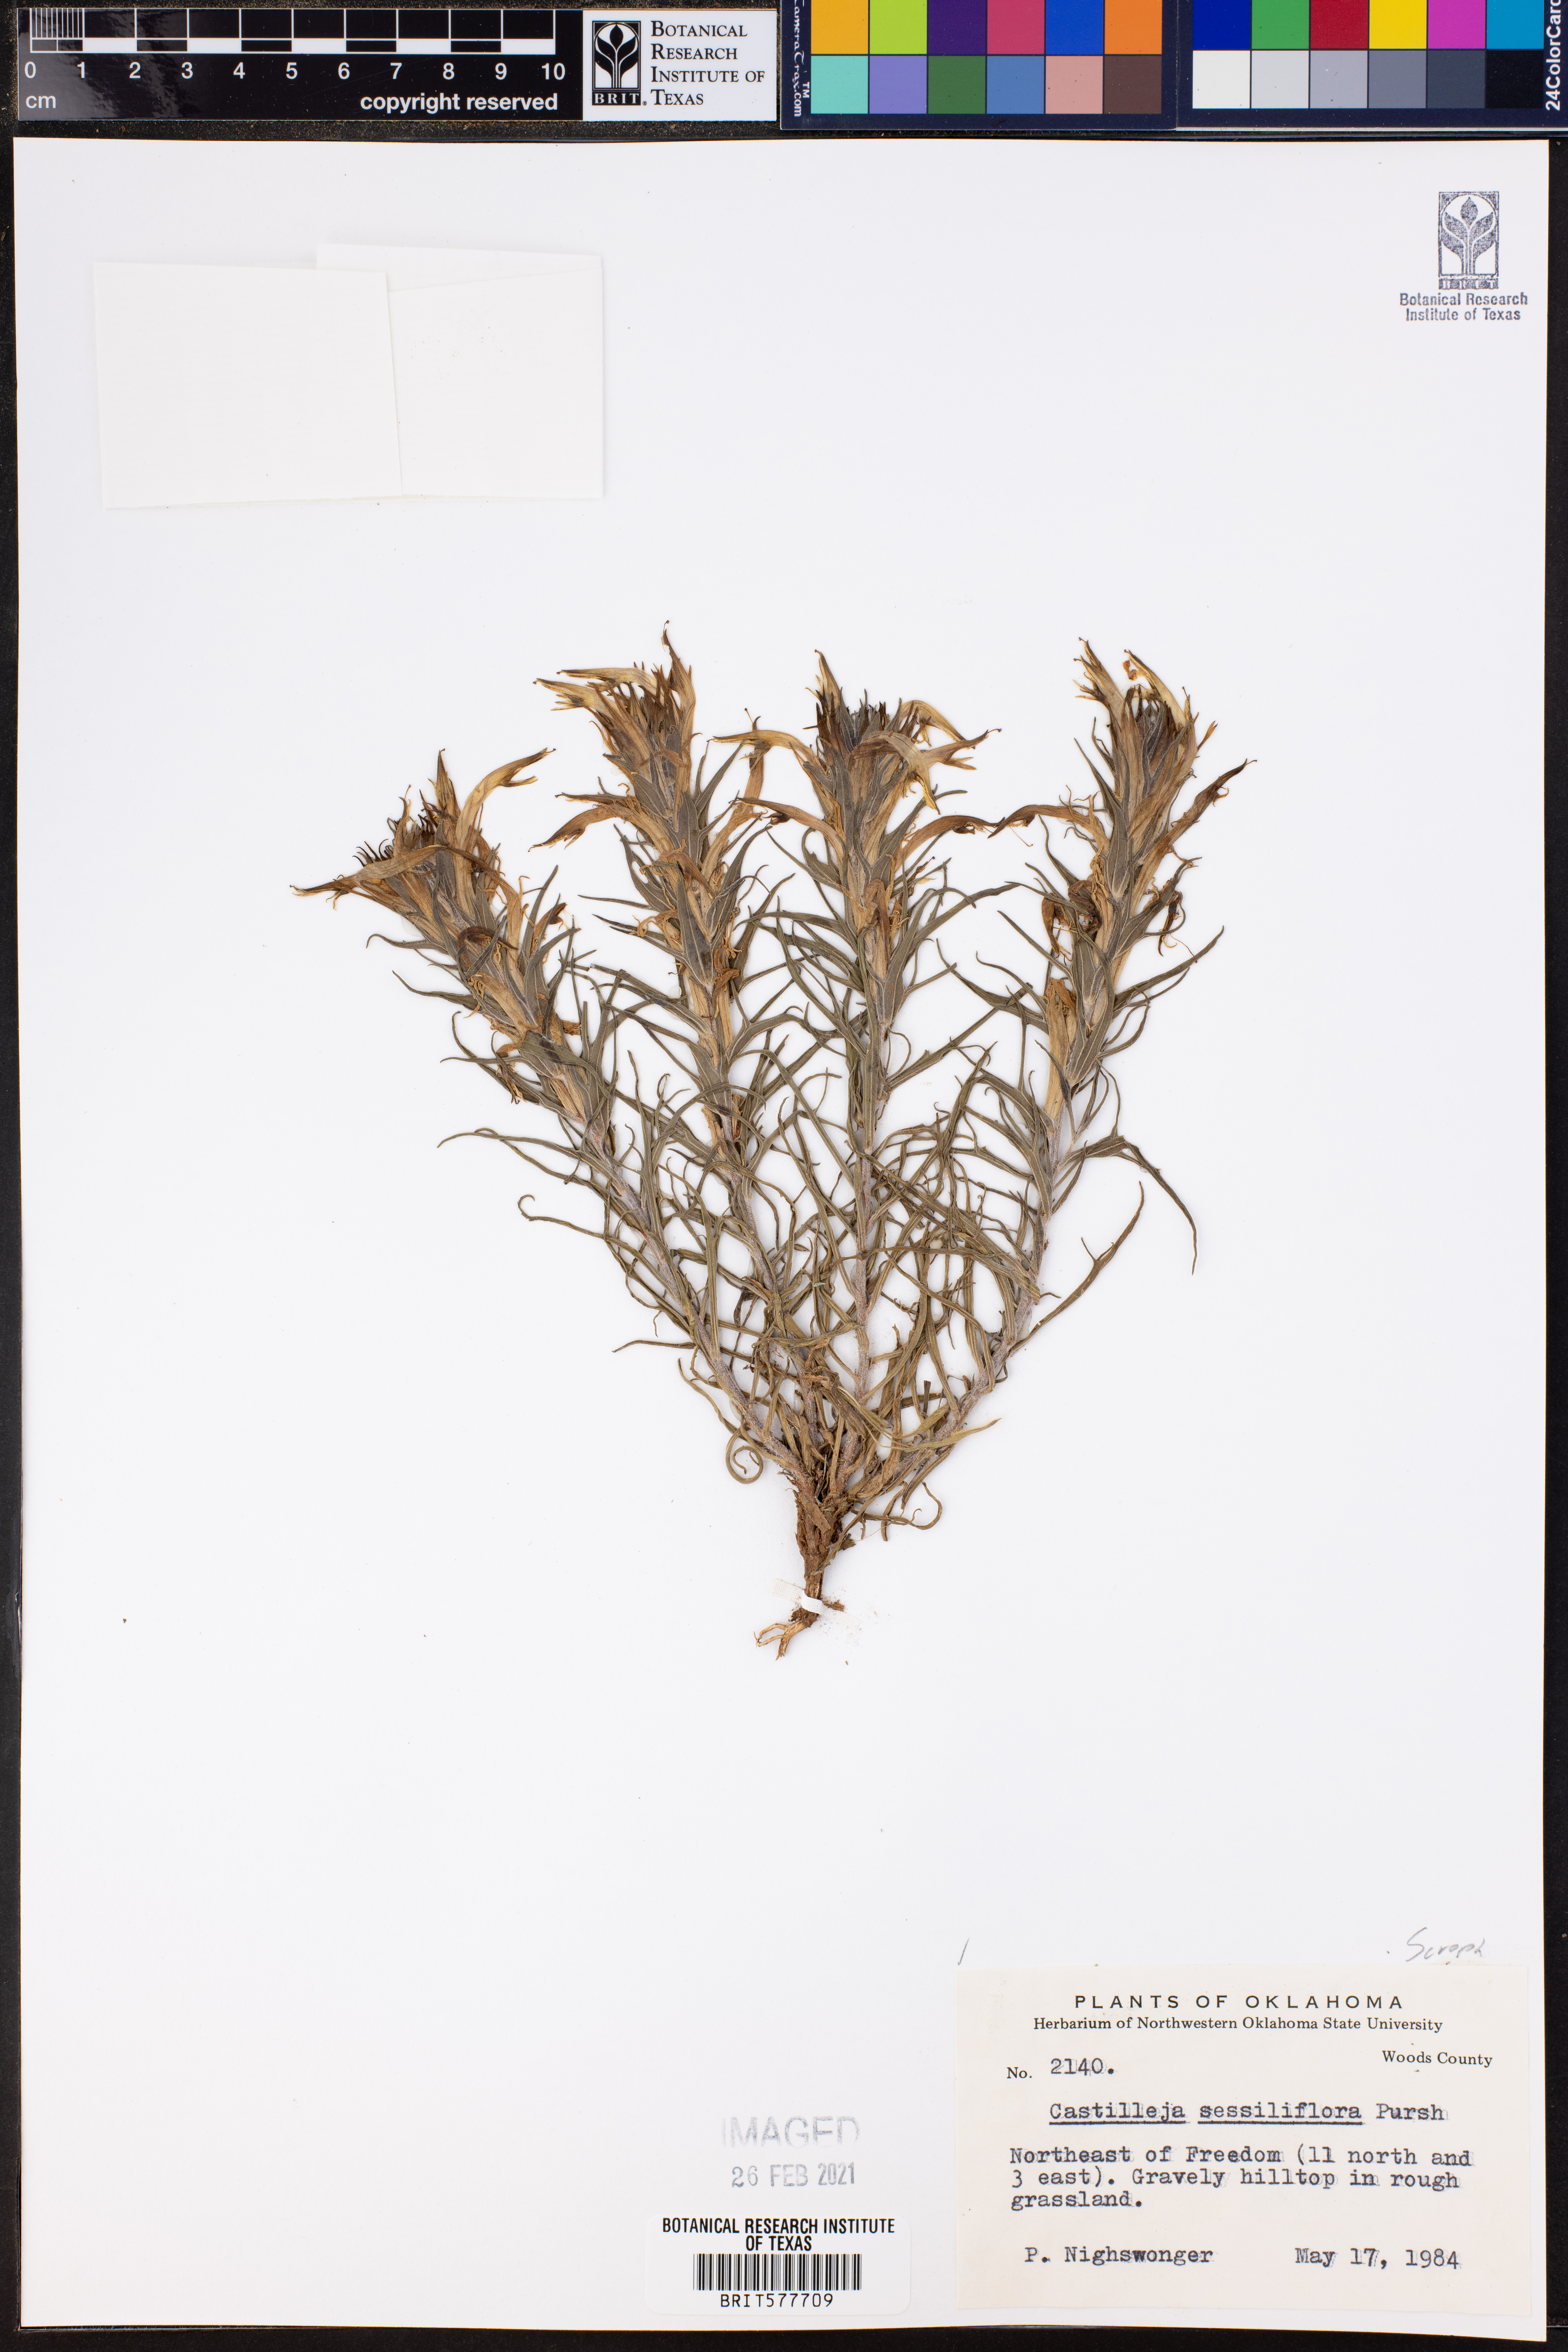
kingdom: Plantae
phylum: Tracheophyta
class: Magnoliopsida
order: Lamiales
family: Orobanchaceae
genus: Castilleja
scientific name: Castilleja sessiliflora
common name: Downy paintbrush
